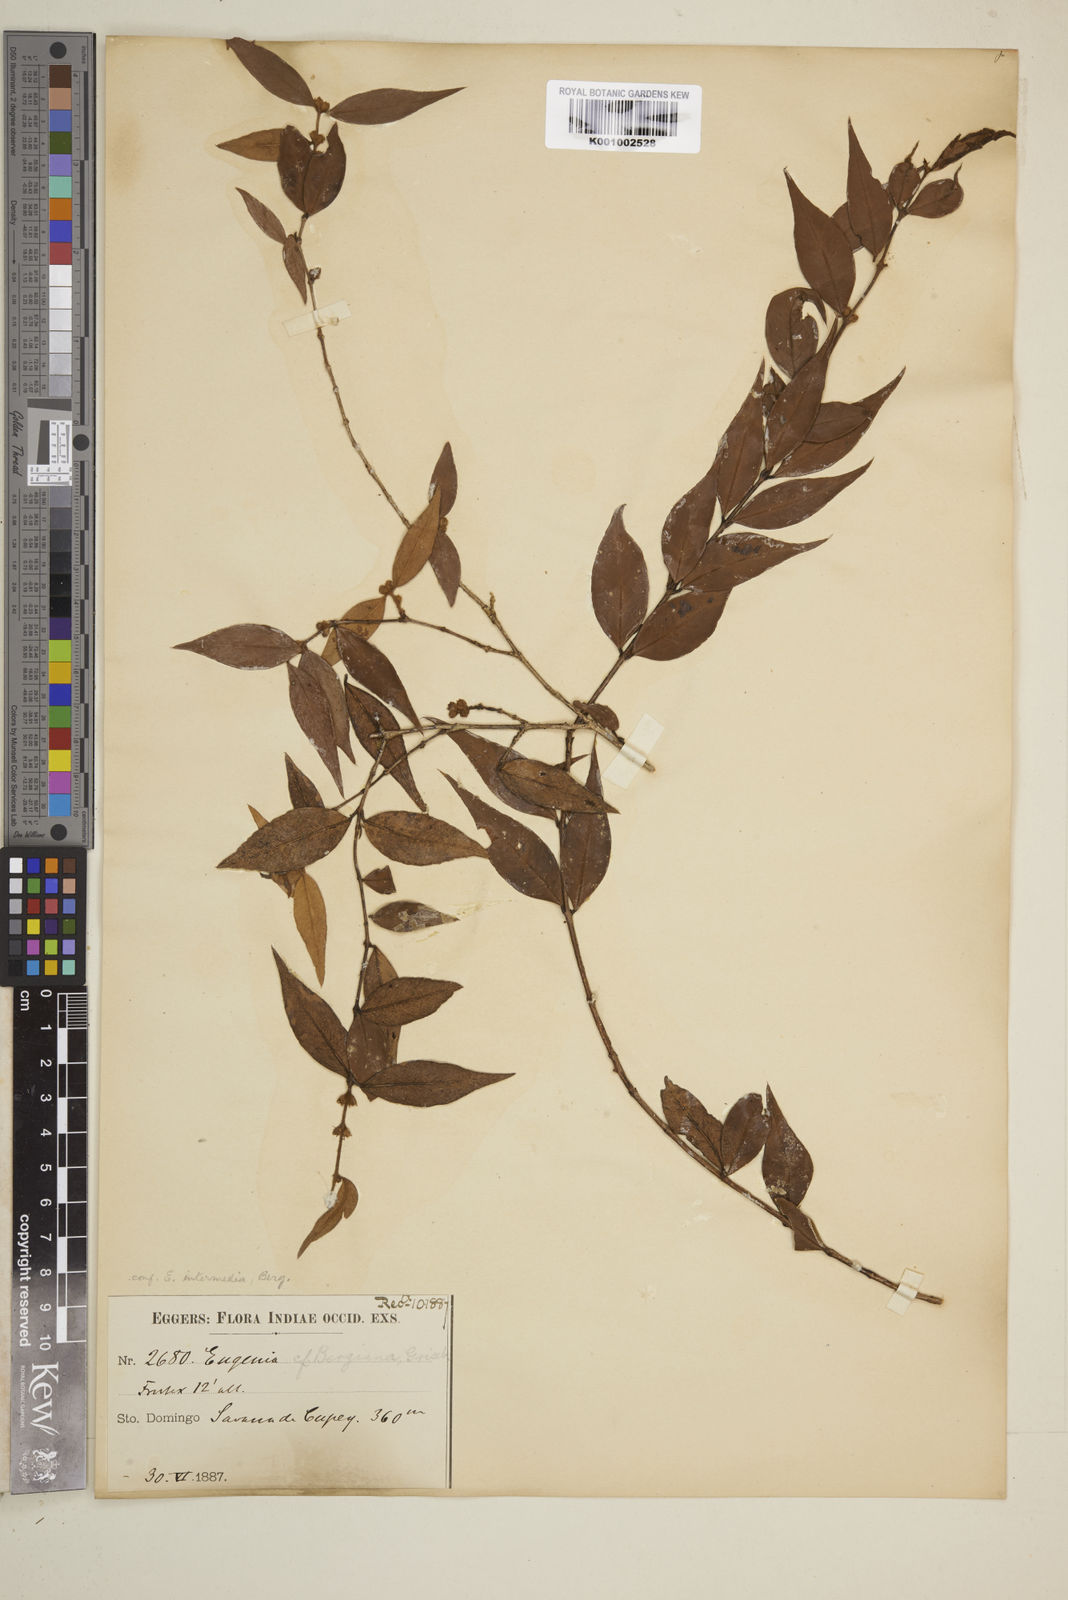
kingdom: Plantae
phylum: Tracheophyta
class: Magnoliopsida
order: Myrtales
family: Myrtaceae
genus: Eugenia
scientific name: Eugenia intermedia
